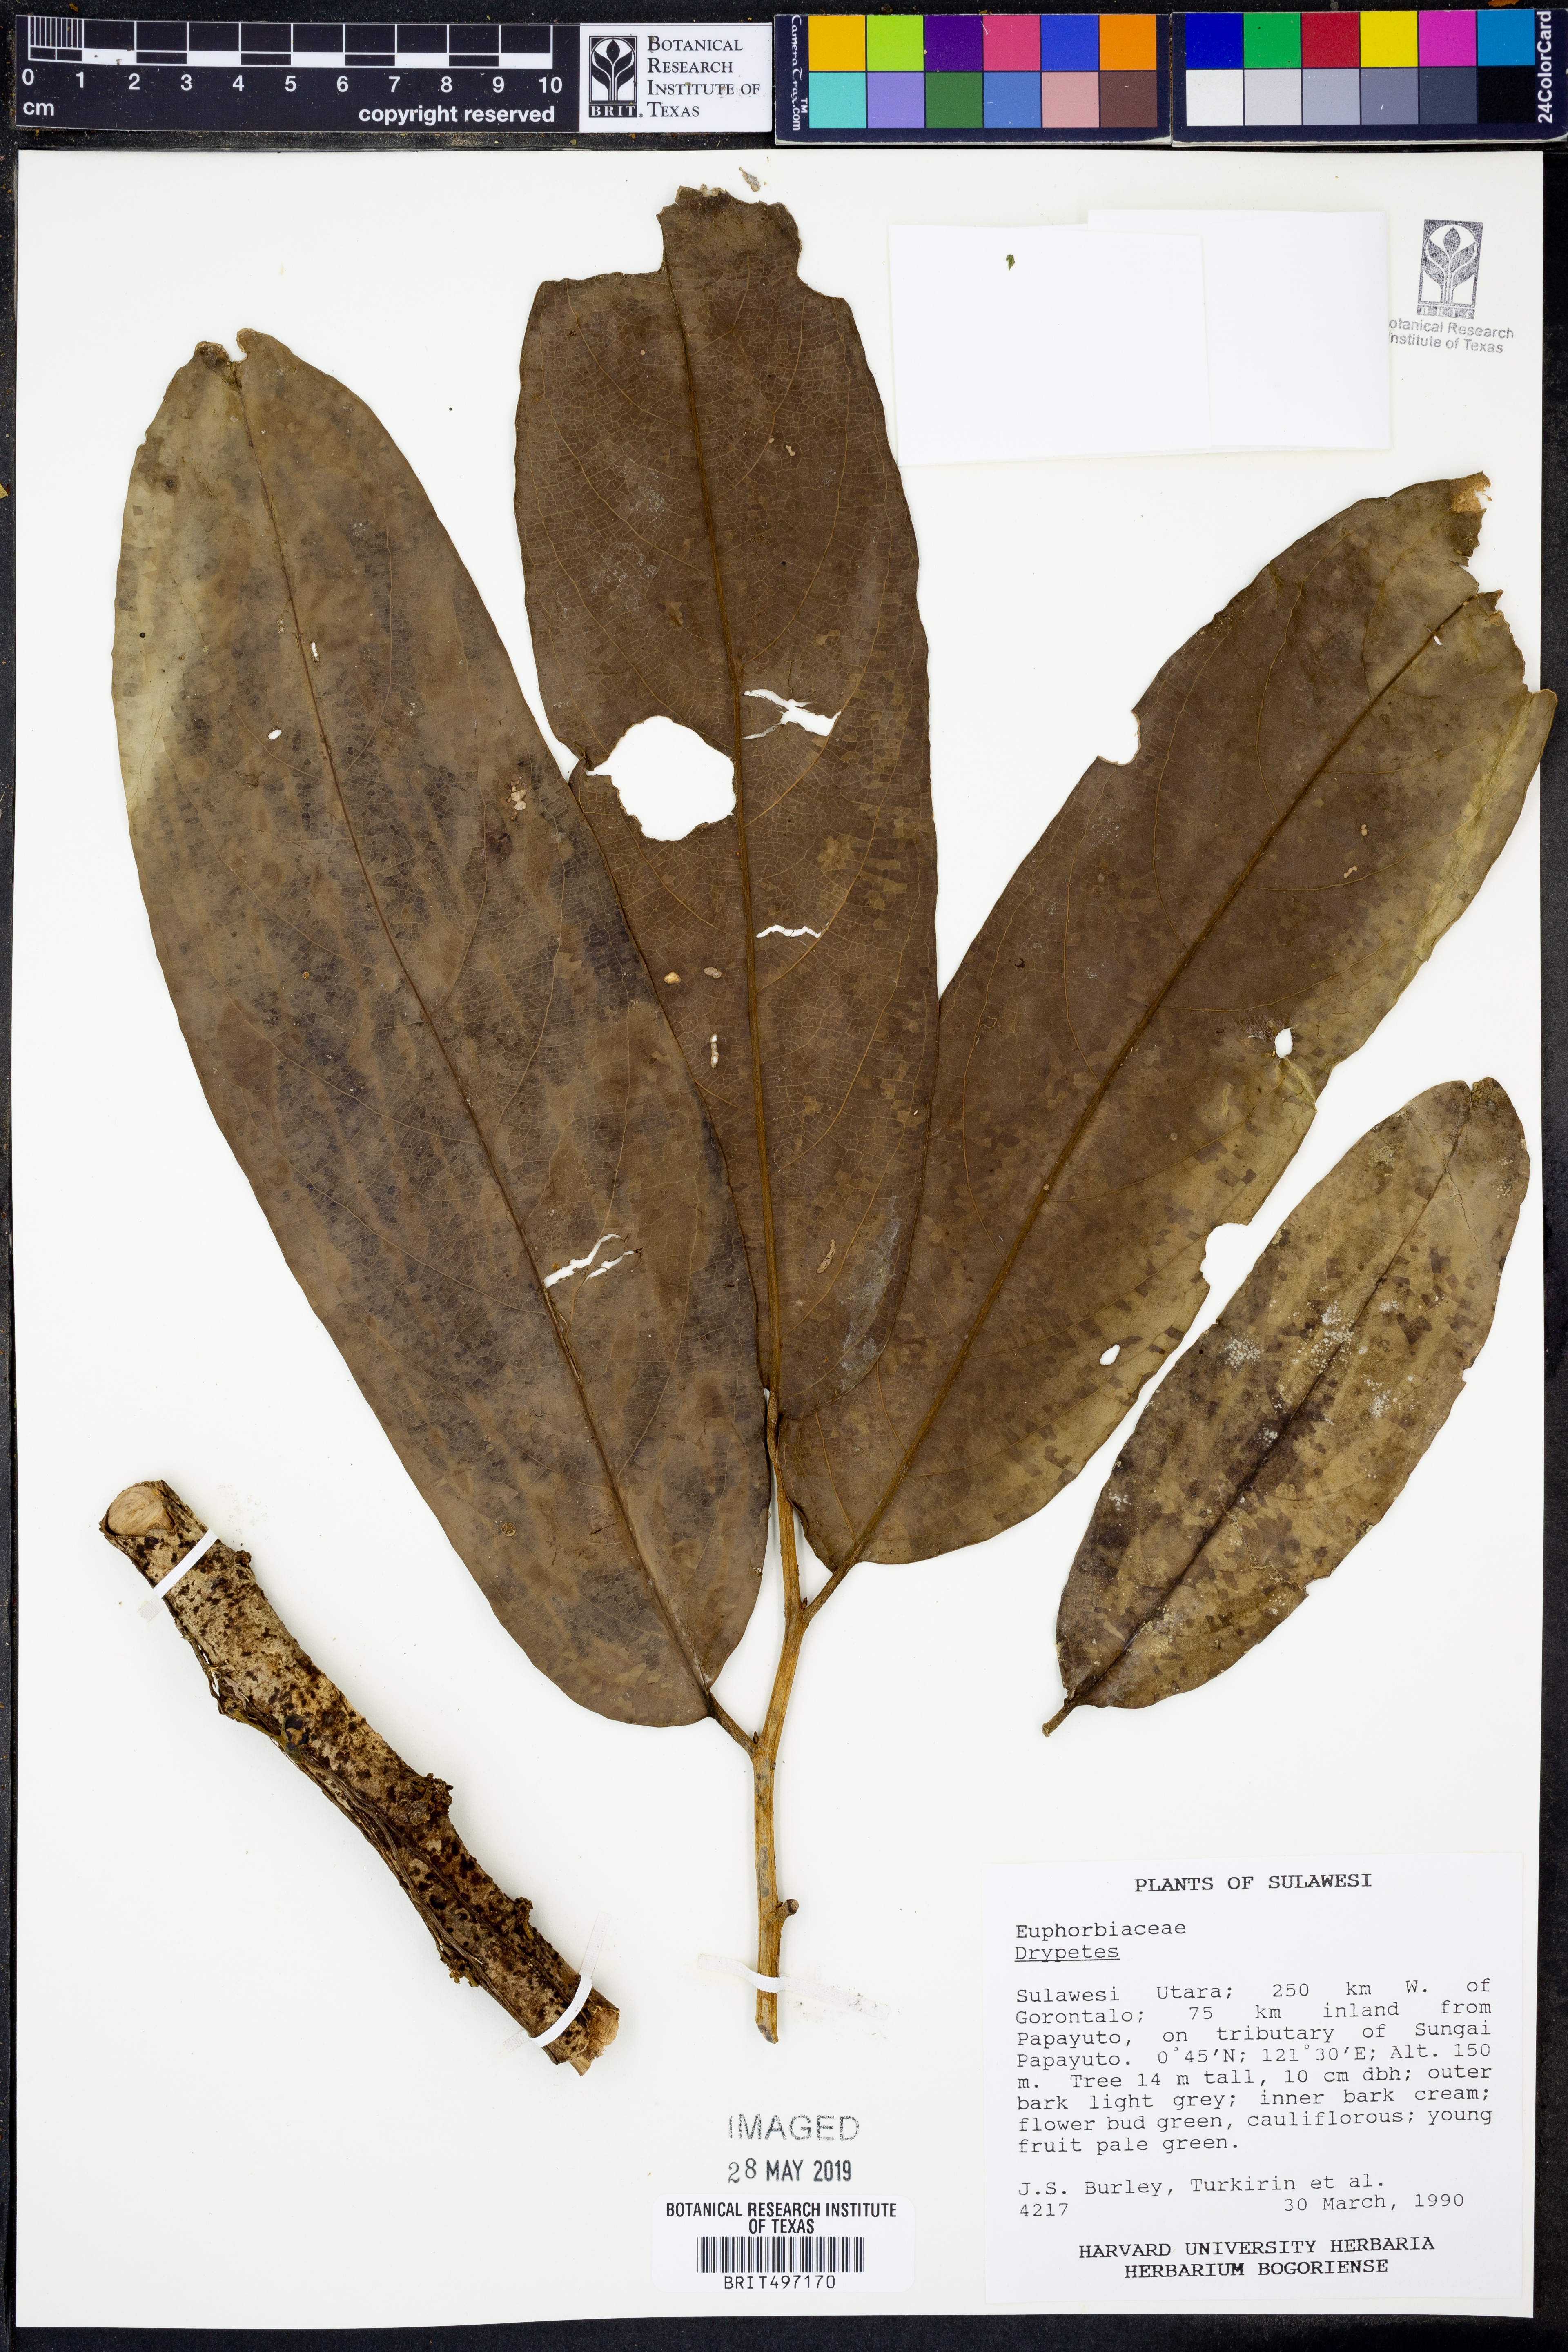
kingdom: Plantae
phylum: Tracheophyta
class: Magnoliopsida
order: Malpighiales
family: Putranjivaceae
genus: Drypetes
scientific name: Drypetes
